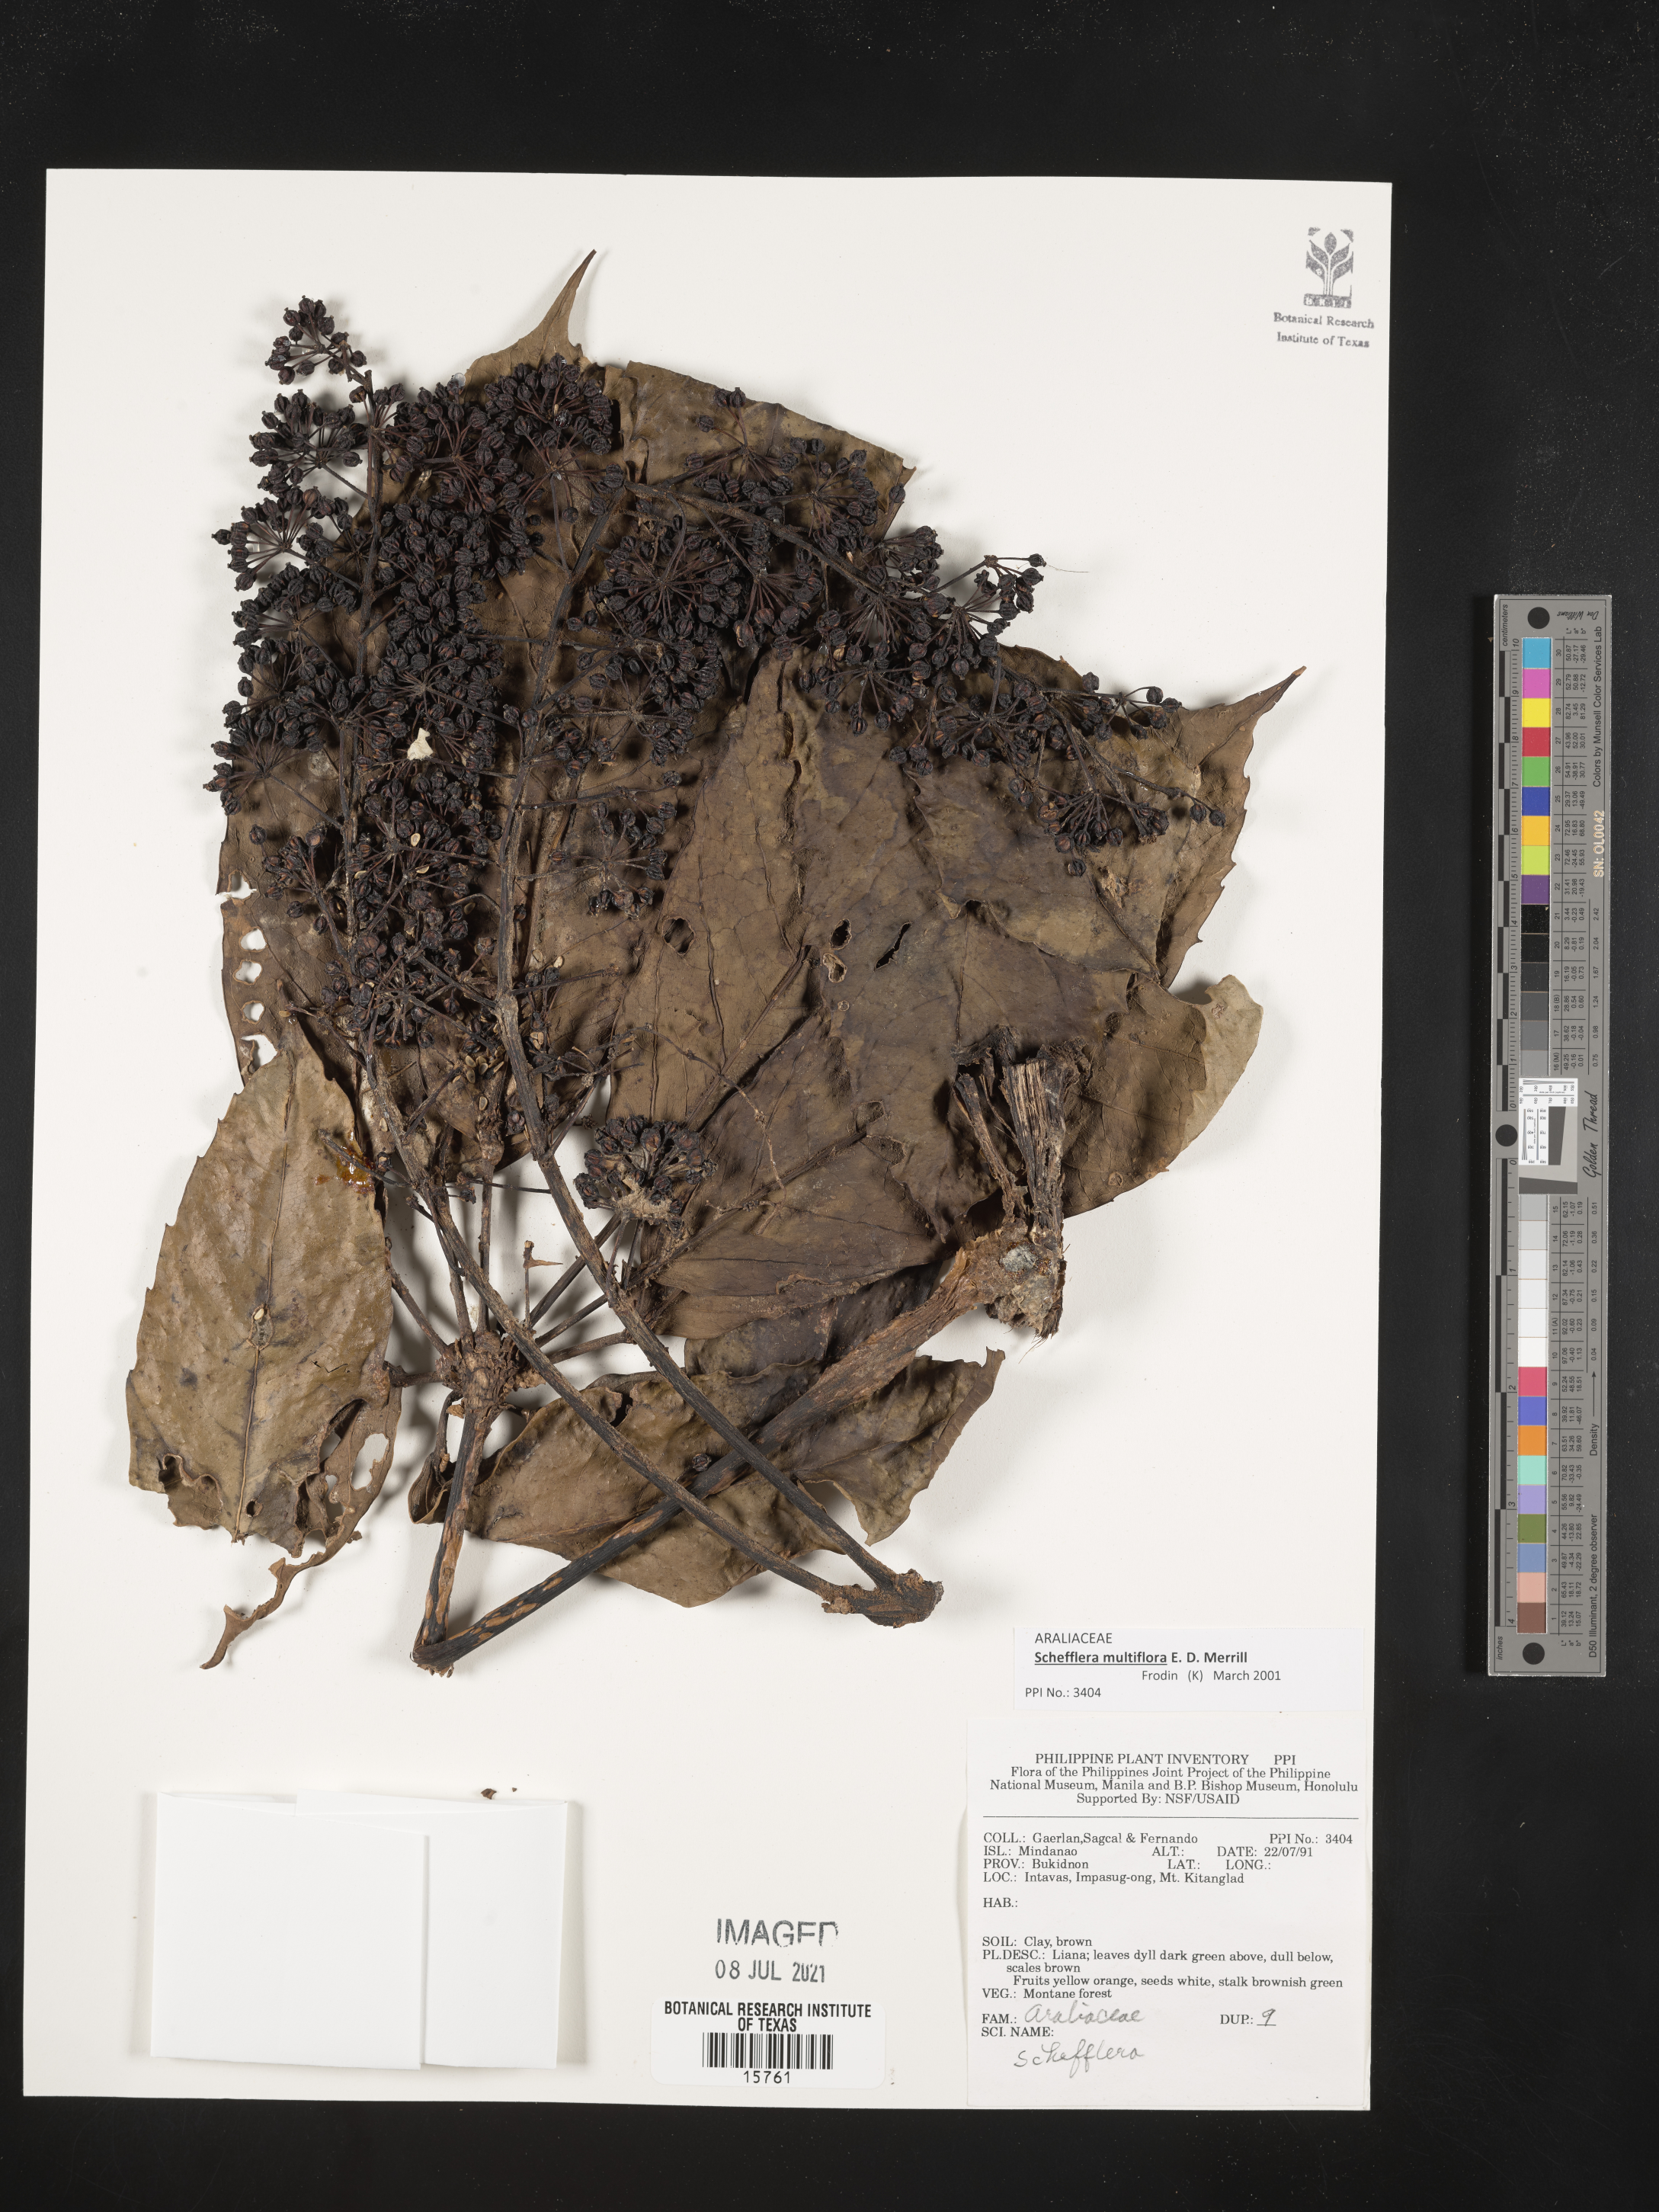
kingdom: Plantae
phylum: Tracheophyta
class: Magnoliopsida
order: Apiales
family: Araliaceae
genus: Schefflera
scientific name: Schefflera
